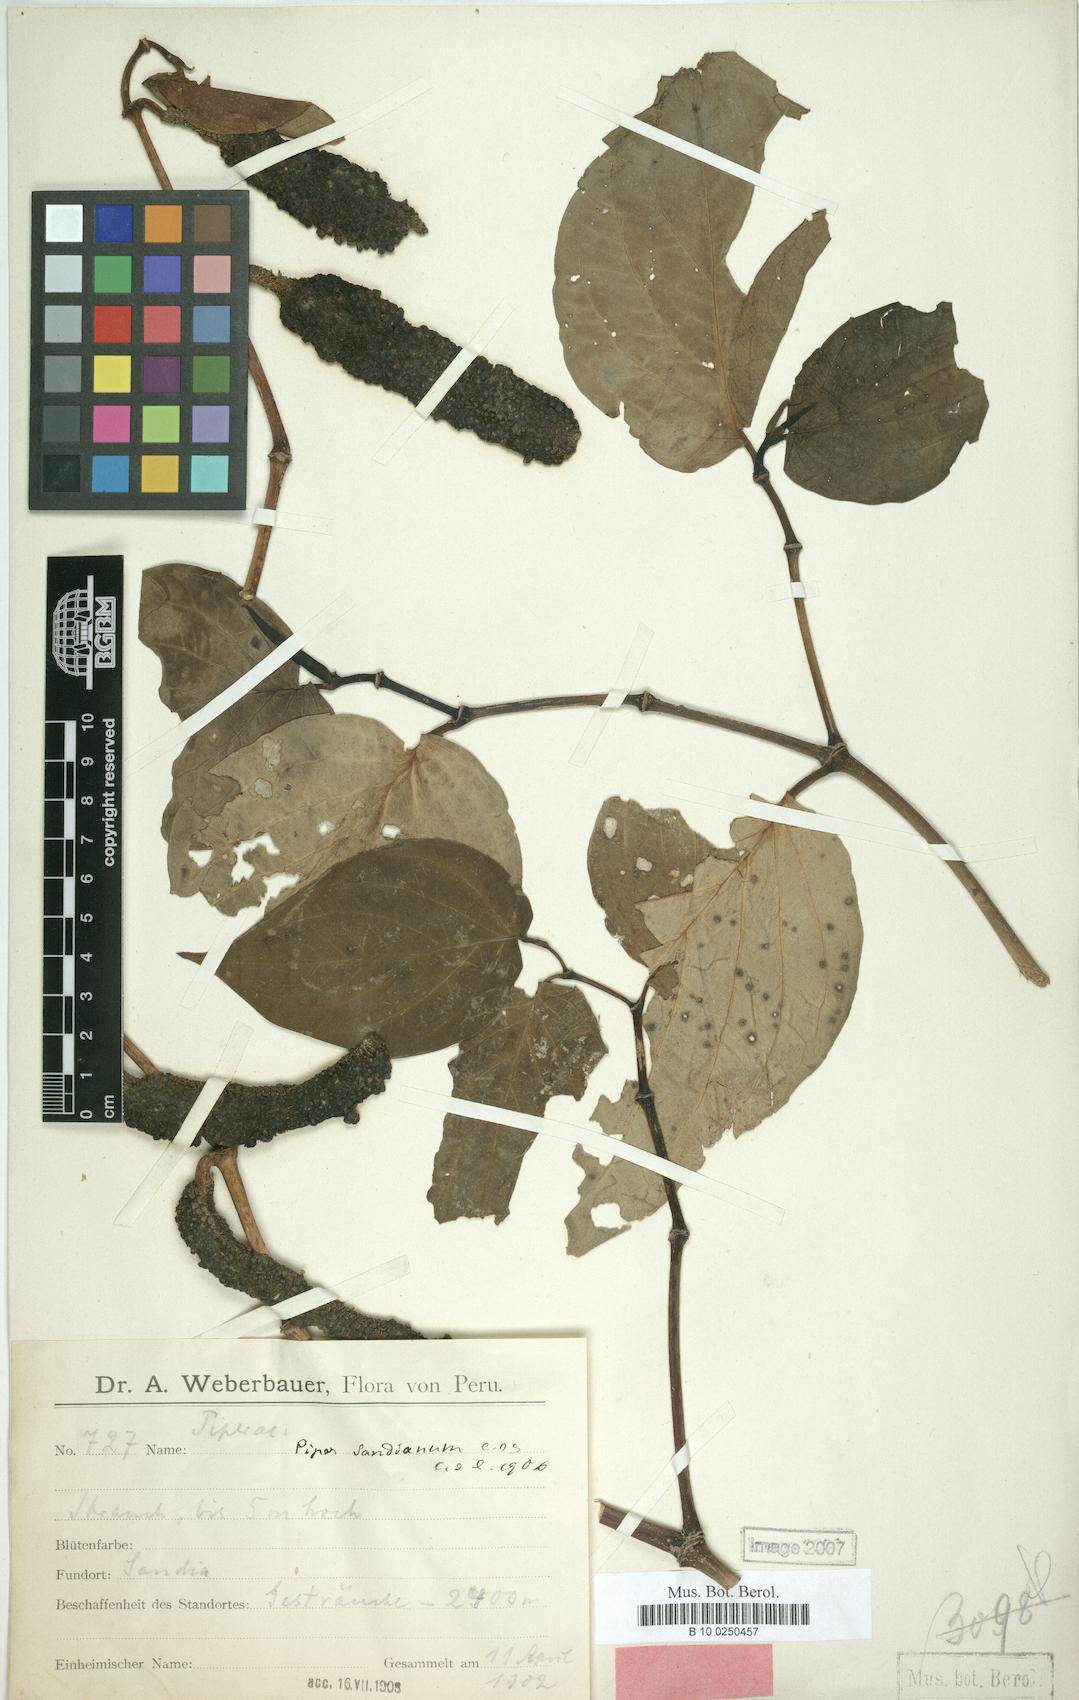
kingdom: Plantae
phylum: Tracheophyta
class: Magnoliopsida
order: Piperales
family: Piperaceae
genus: Piper
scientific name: Piper sandianum
